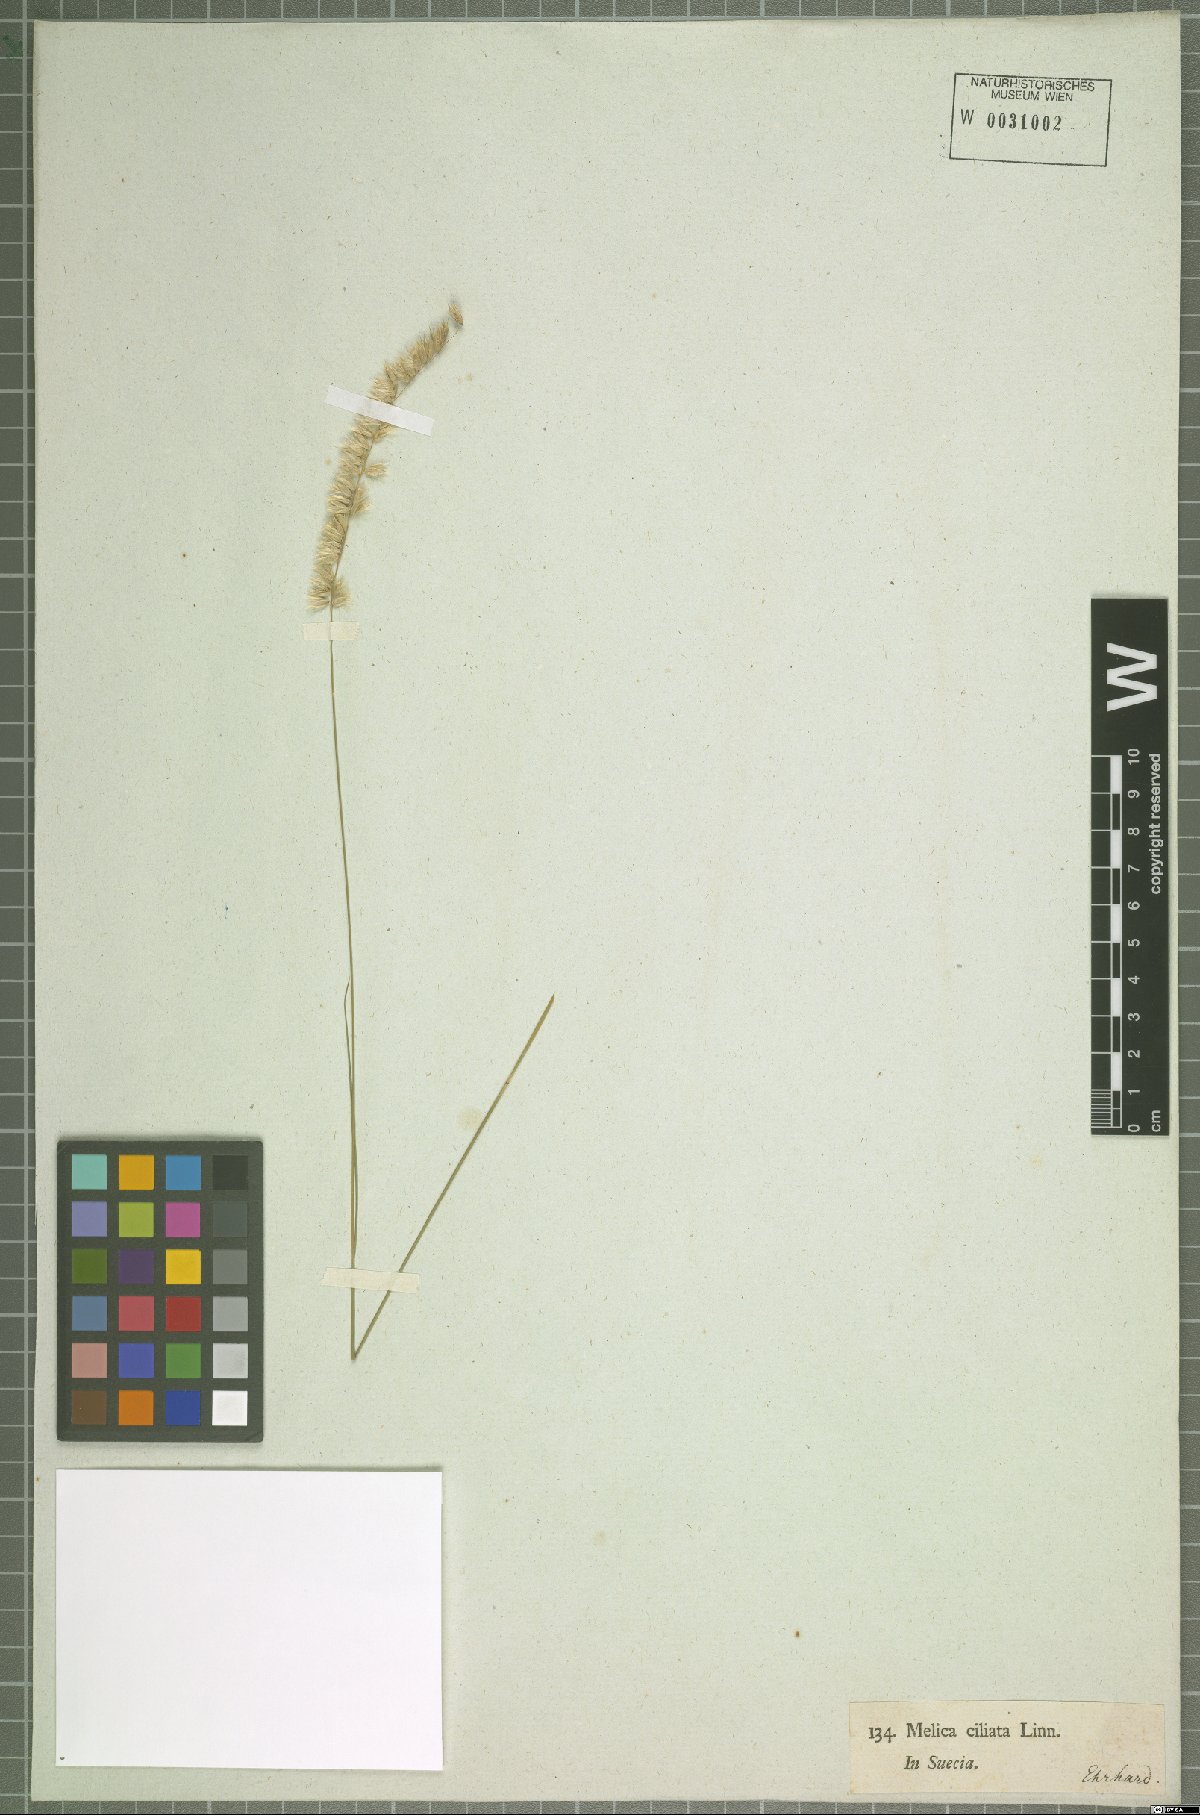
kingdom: Plantae
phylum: Tracheophyta
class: Liliopsida
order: Poales
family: Poaceae
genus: Melica
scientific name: Melica ciliata
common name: Hairy melicgrass
